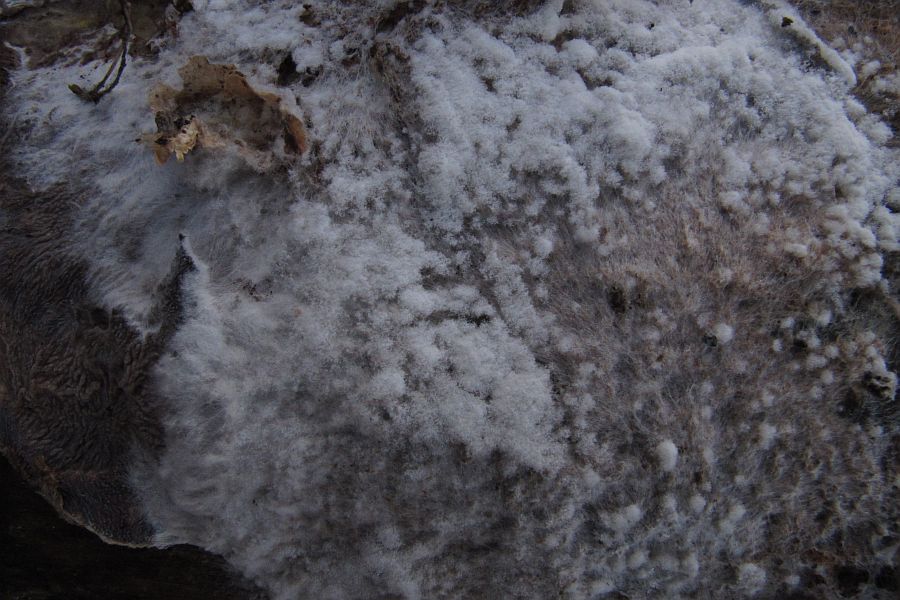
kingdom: Fungi
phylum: Ascomycota
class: Sordariomycetes
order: Hypocreales
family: Hypocreaceae
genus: Hypomyces
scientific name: Hypomyces aurantius
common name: almindelig snylteskorpe
